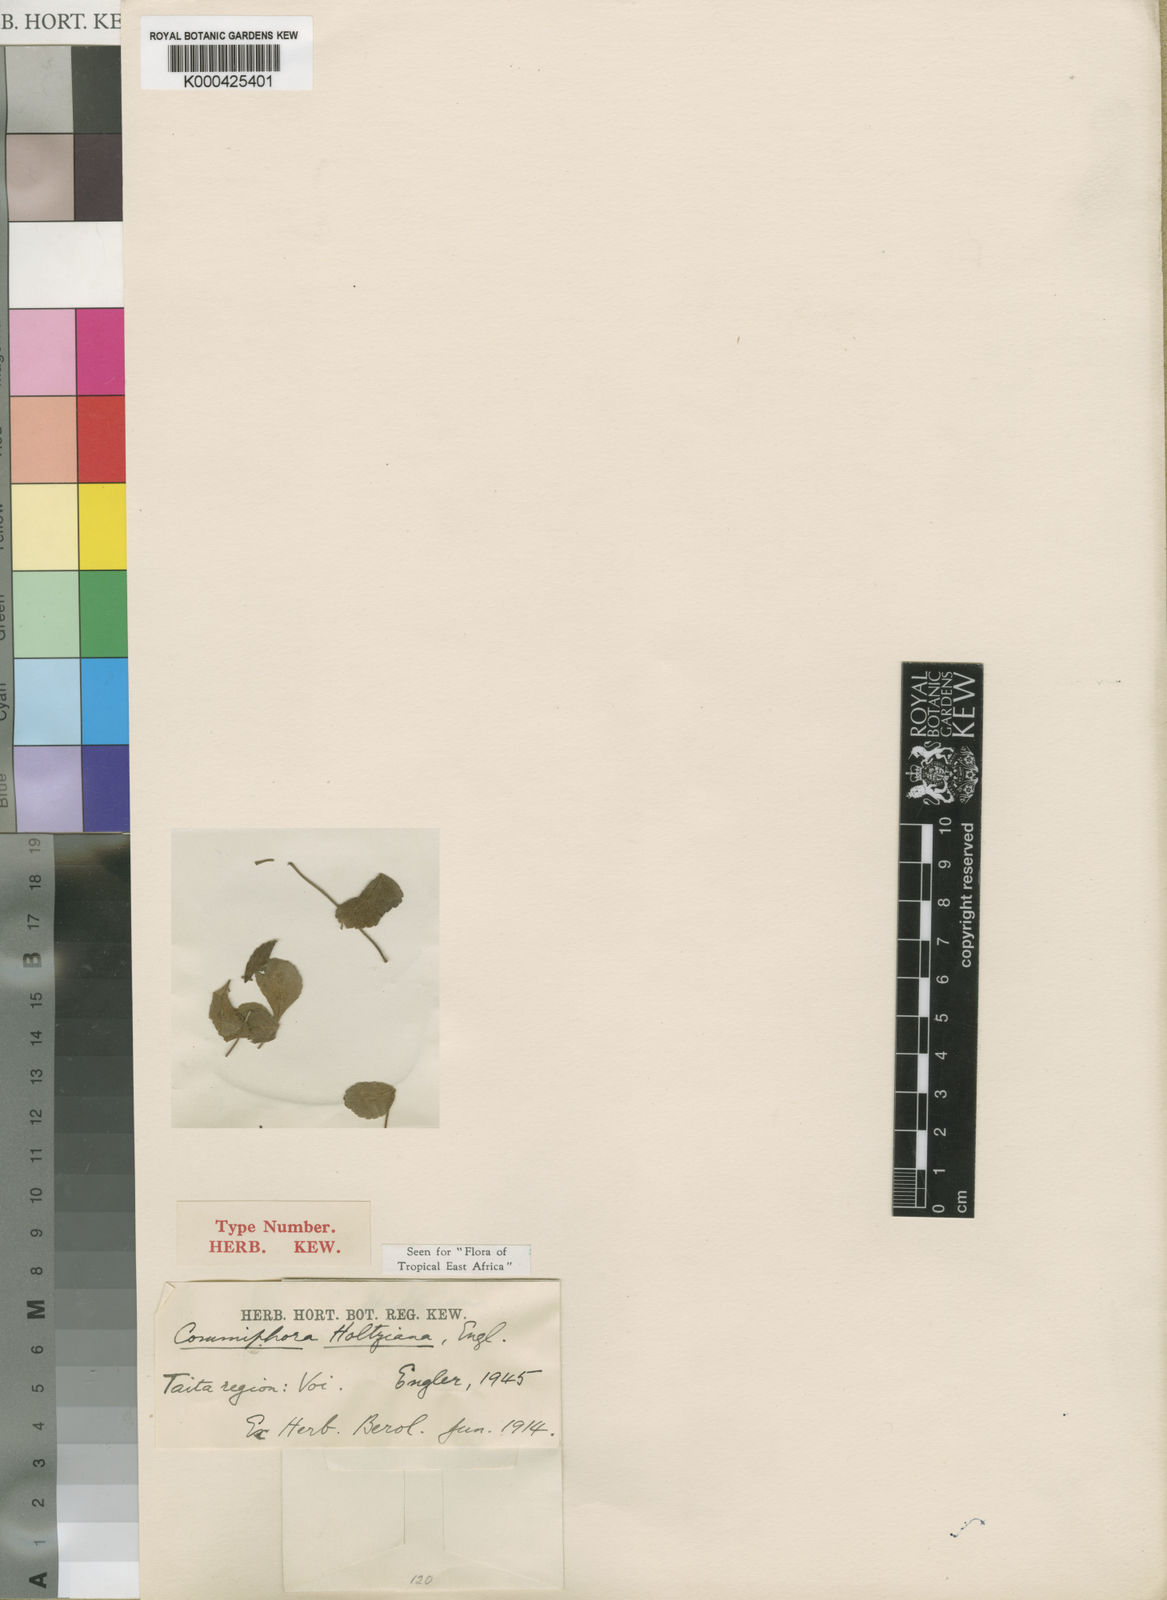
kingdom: Plantae
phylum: Tracheophyta
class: Magnoliopsida
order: Sapindales
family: Burseraceae
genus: Commiphora
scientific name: Commiphora kataf
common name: Bisabol myrrh
